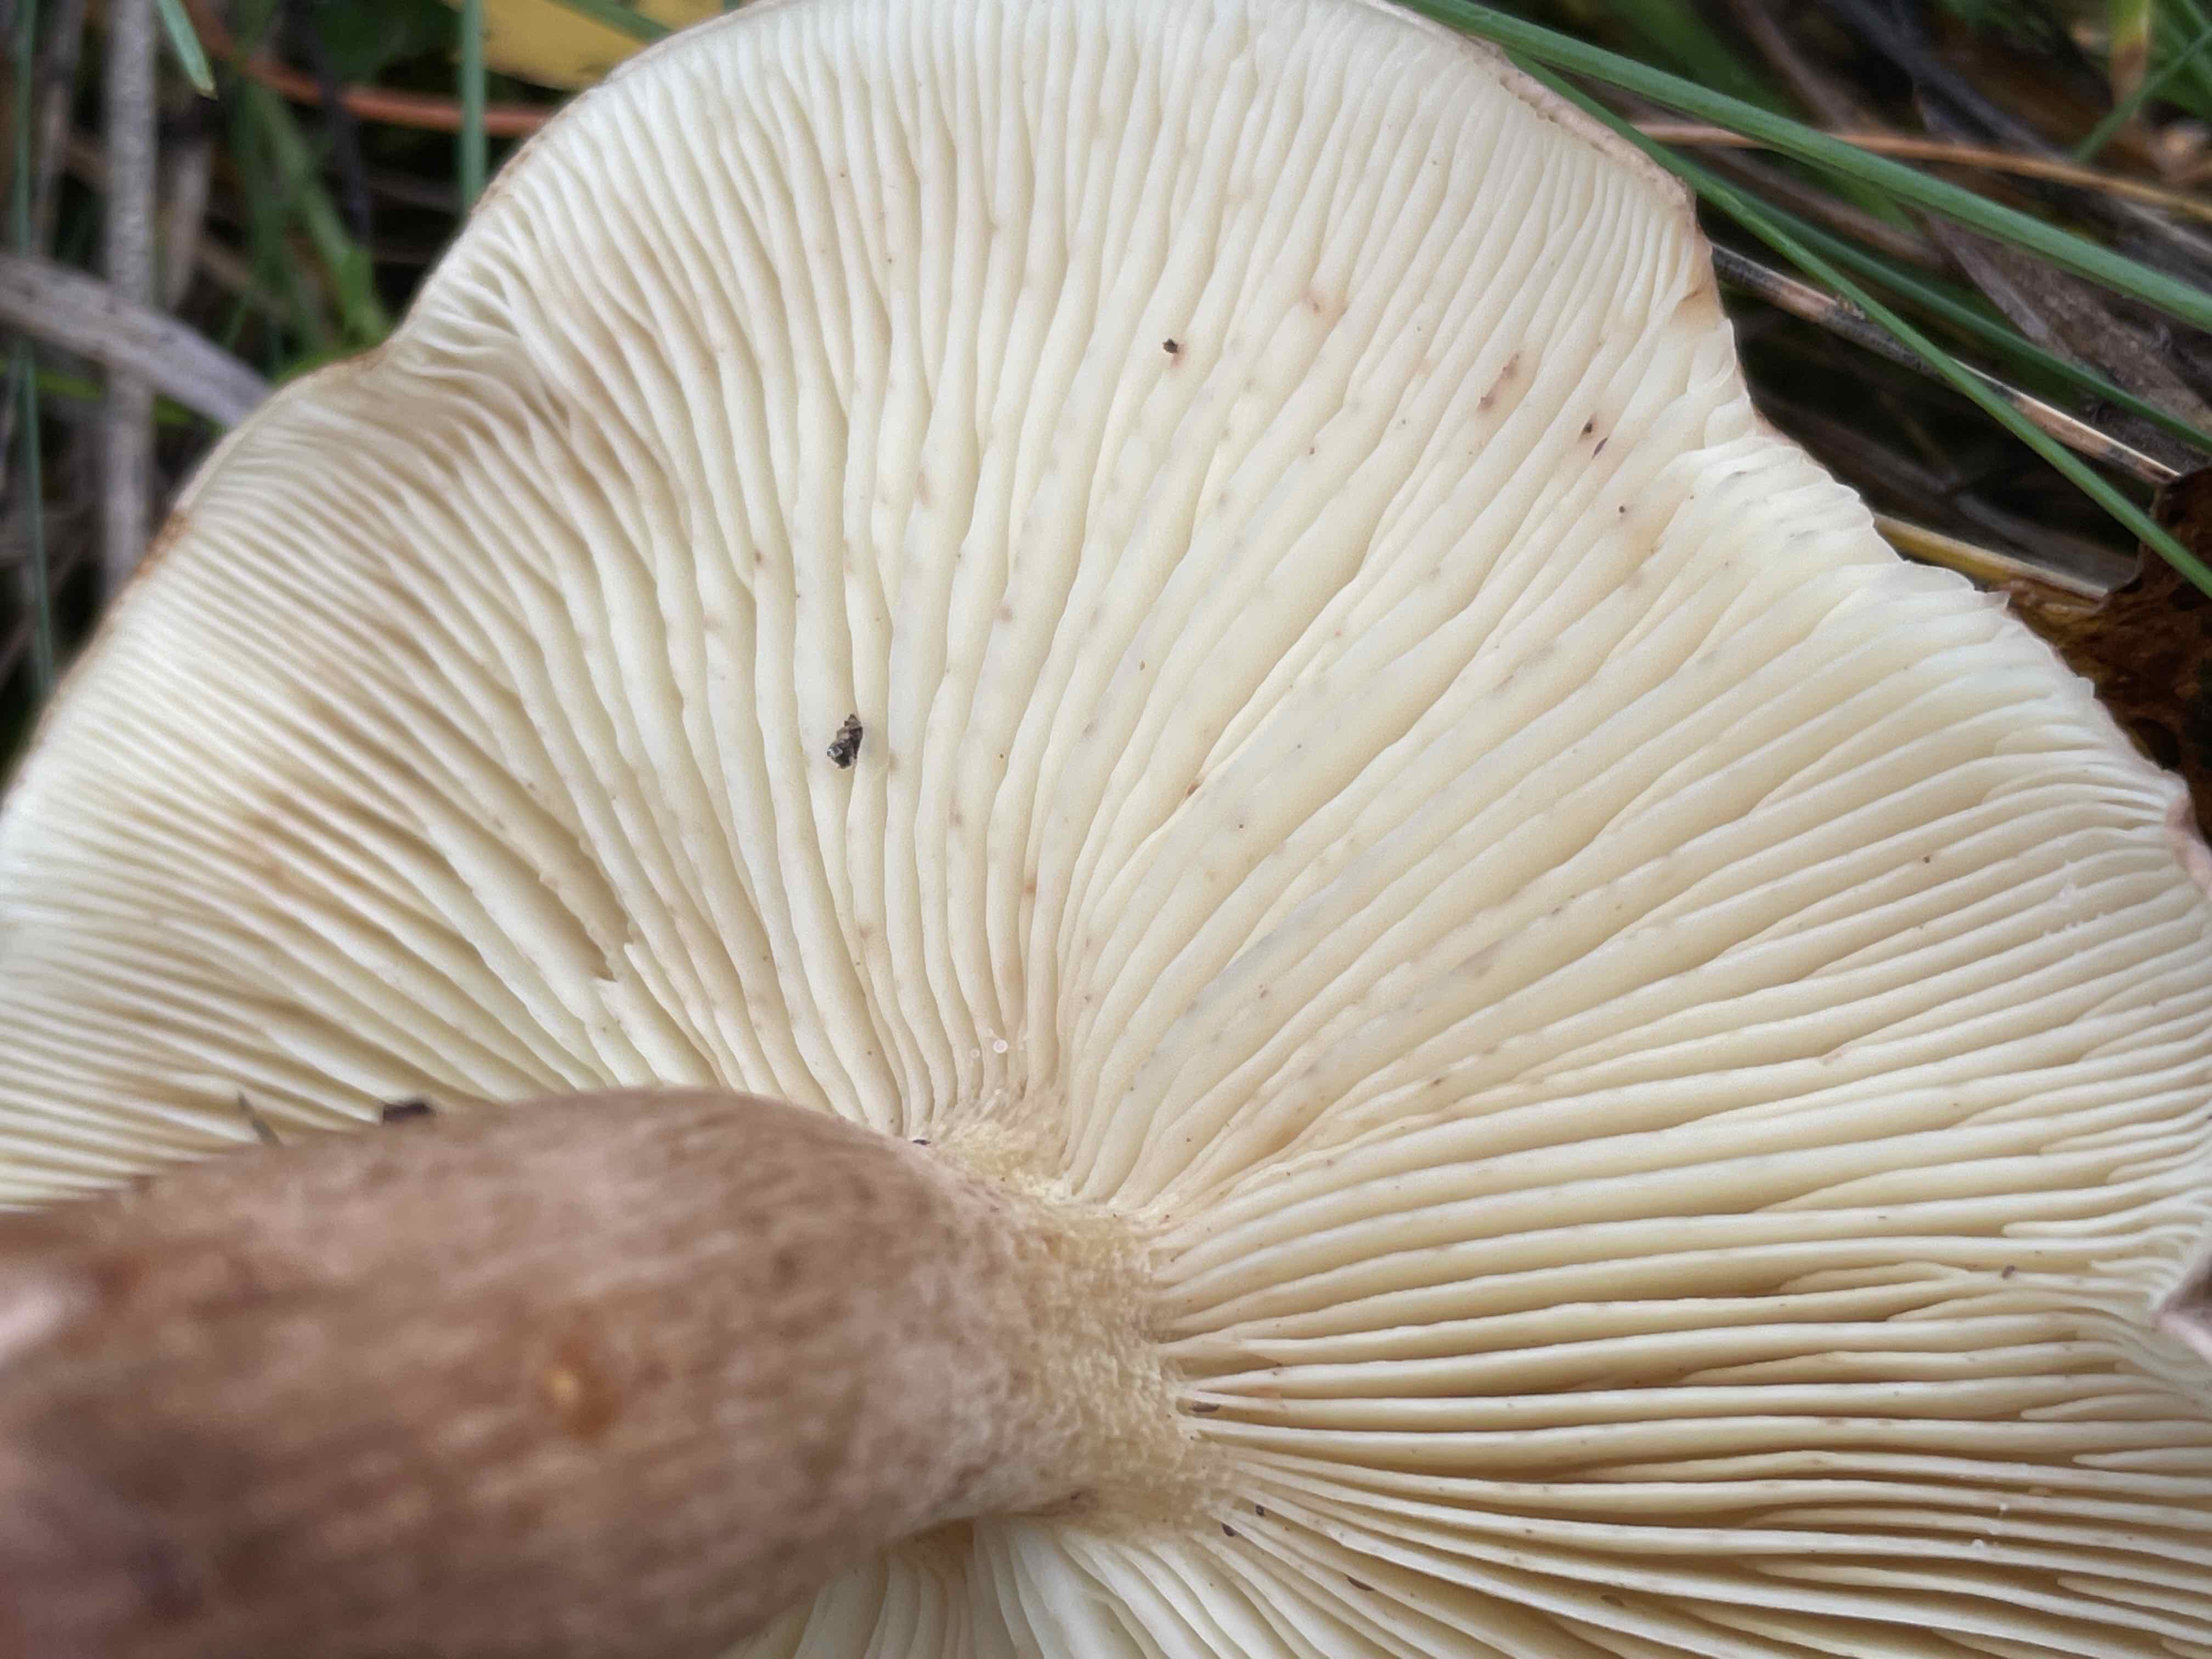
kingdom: Fungi
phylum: Basidiomycota
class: Agaricomycetes
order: Agaricales
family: Tricholomataceae
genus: Tricholoma
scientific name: Tricholoma fulvum
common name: birke-ridderhat
